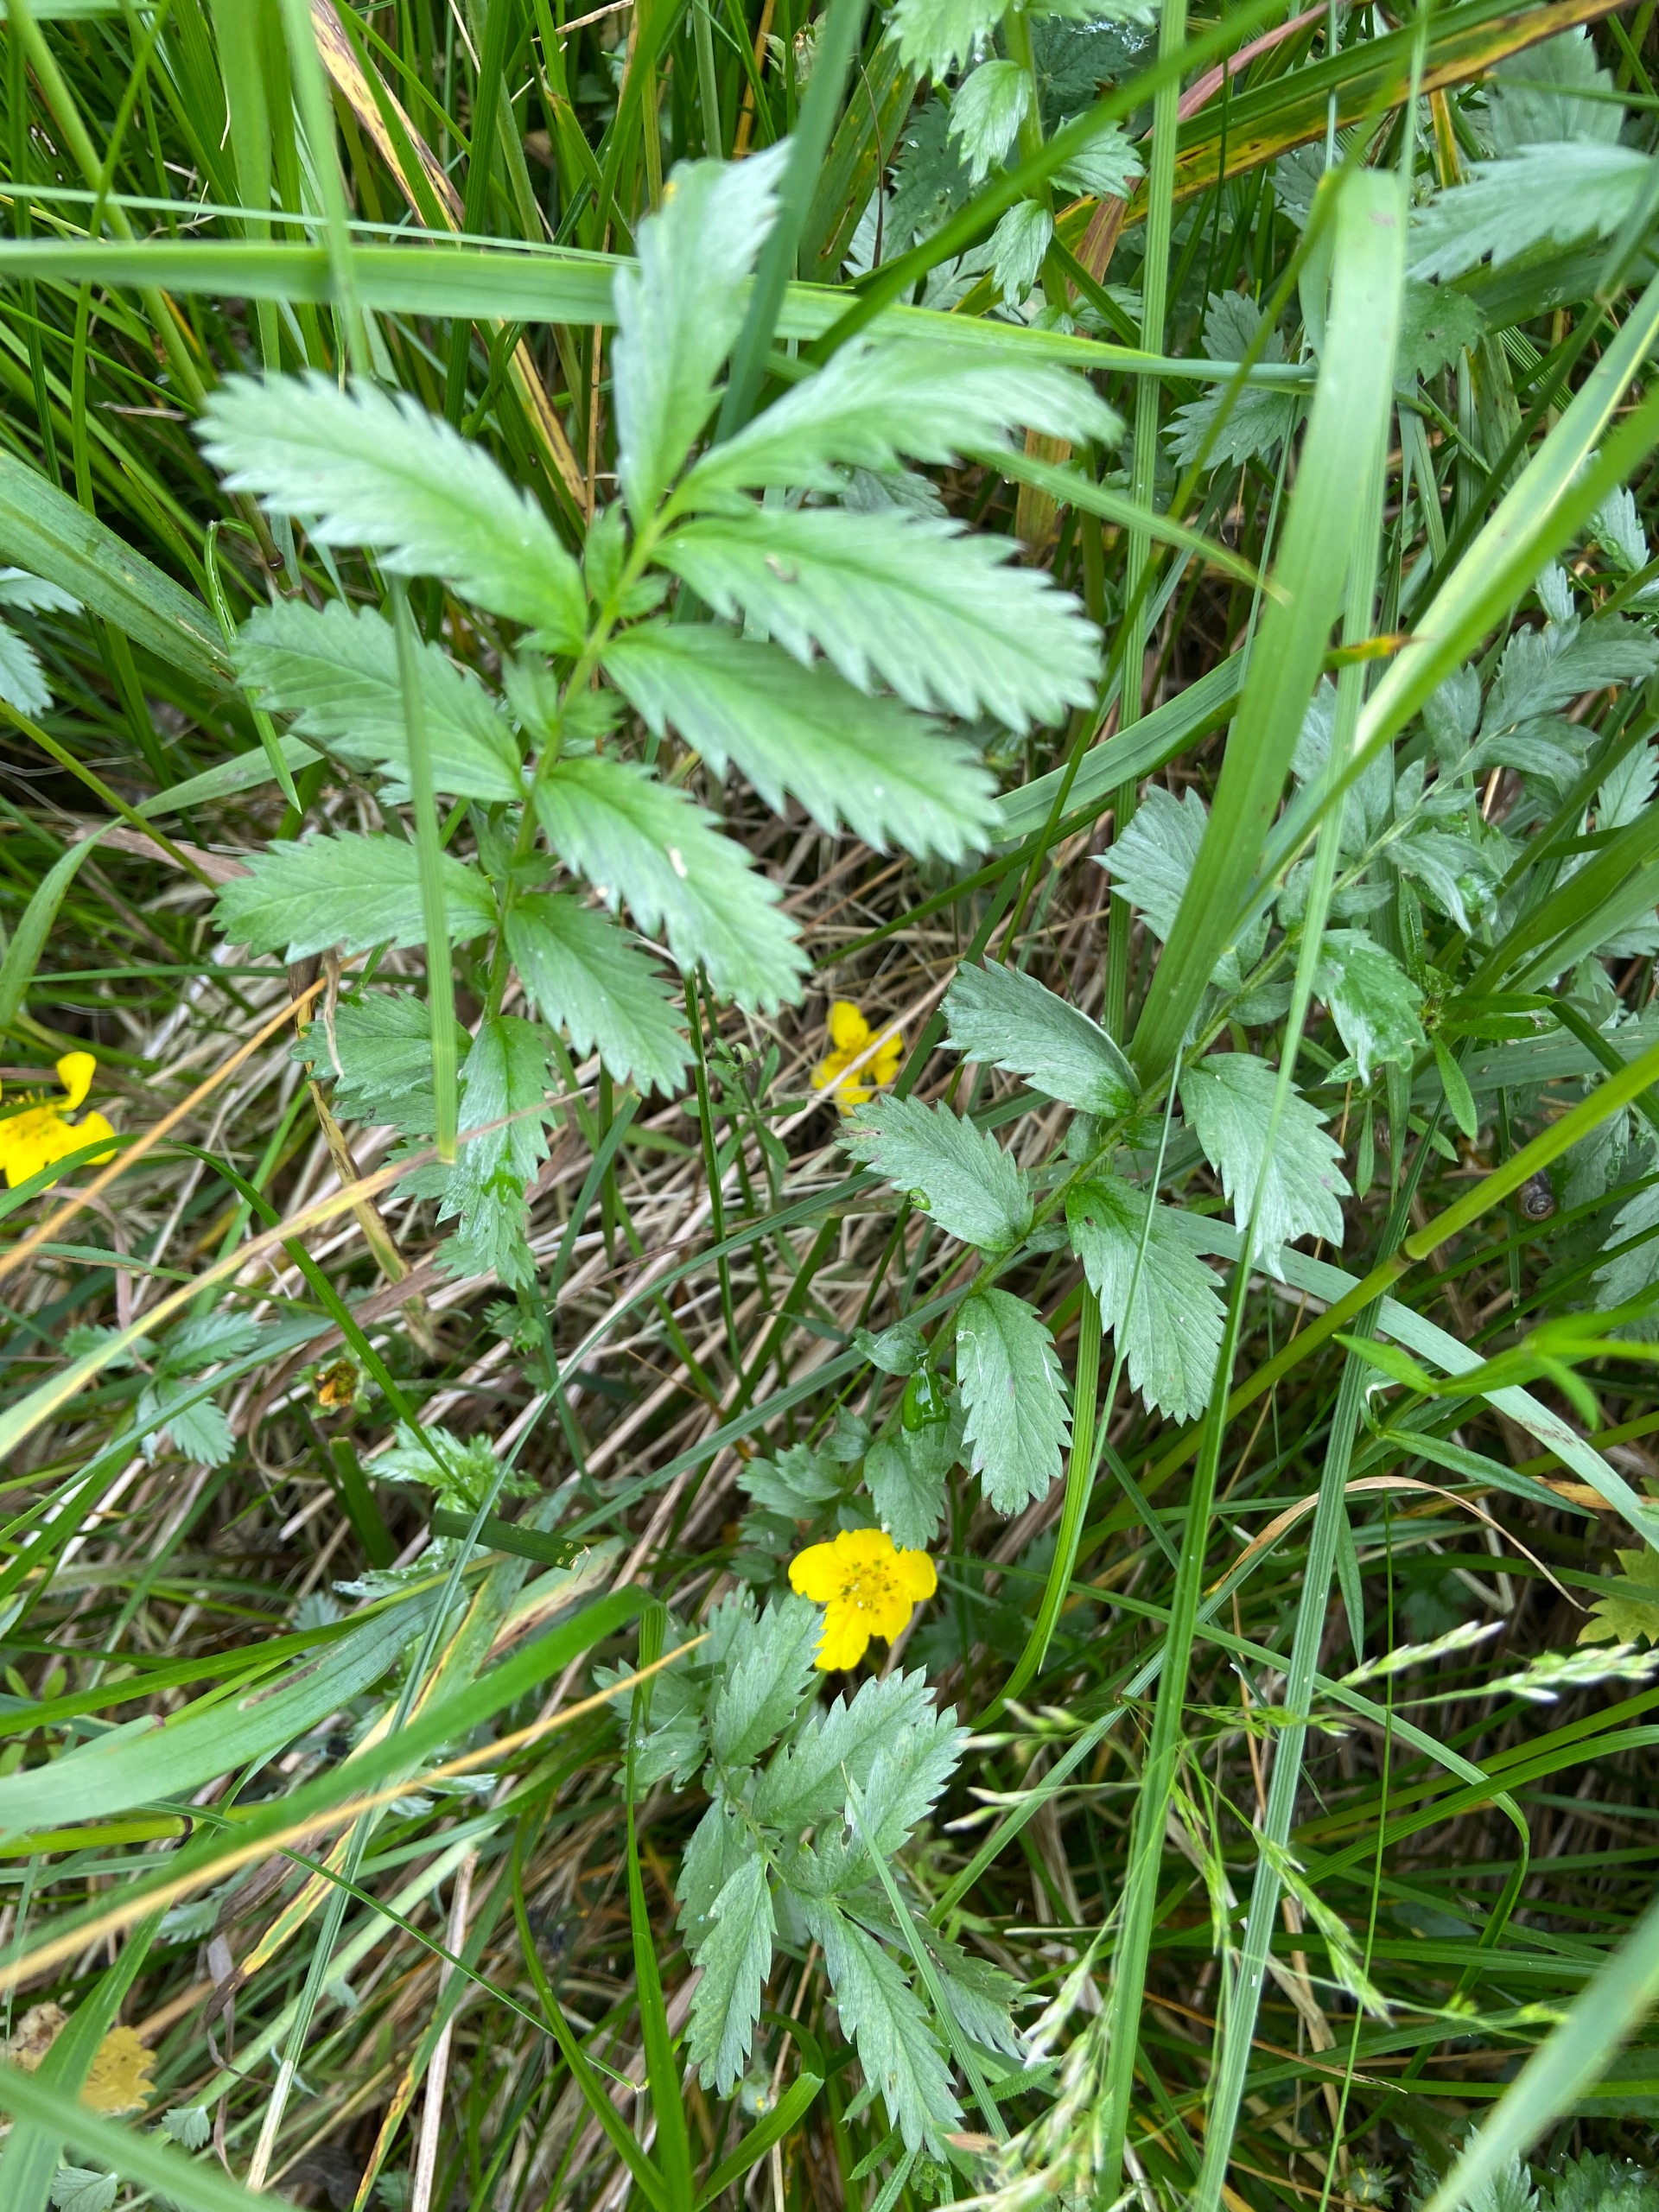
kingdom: Plantae
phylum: Tracheophyta
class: Magnoliopsida
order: Rosales
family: Rosaceae
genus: Argentina
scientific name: Argentina anserina
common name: Gåsepotentil
